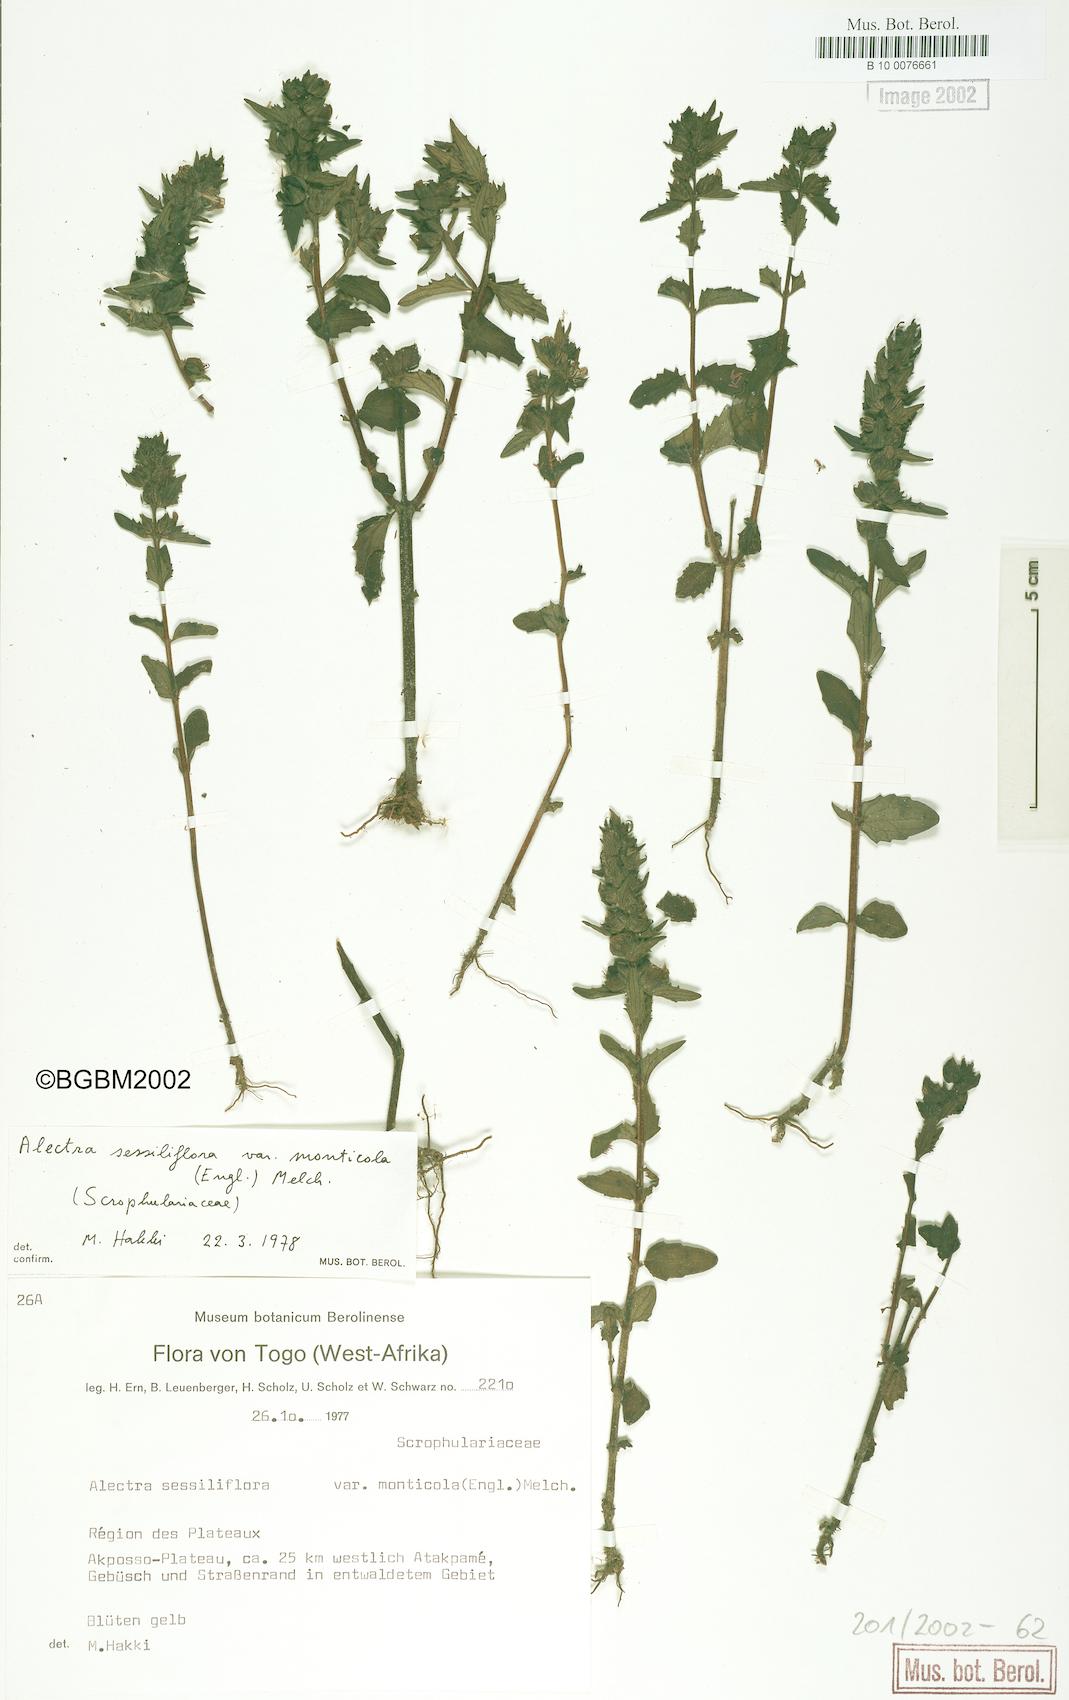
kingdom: Plantae
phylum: Tracheophyta
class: Magnoliopsida
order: Lamiales
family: Orobanchaceae
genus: Alectra
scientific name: Alectra sessiliflora
